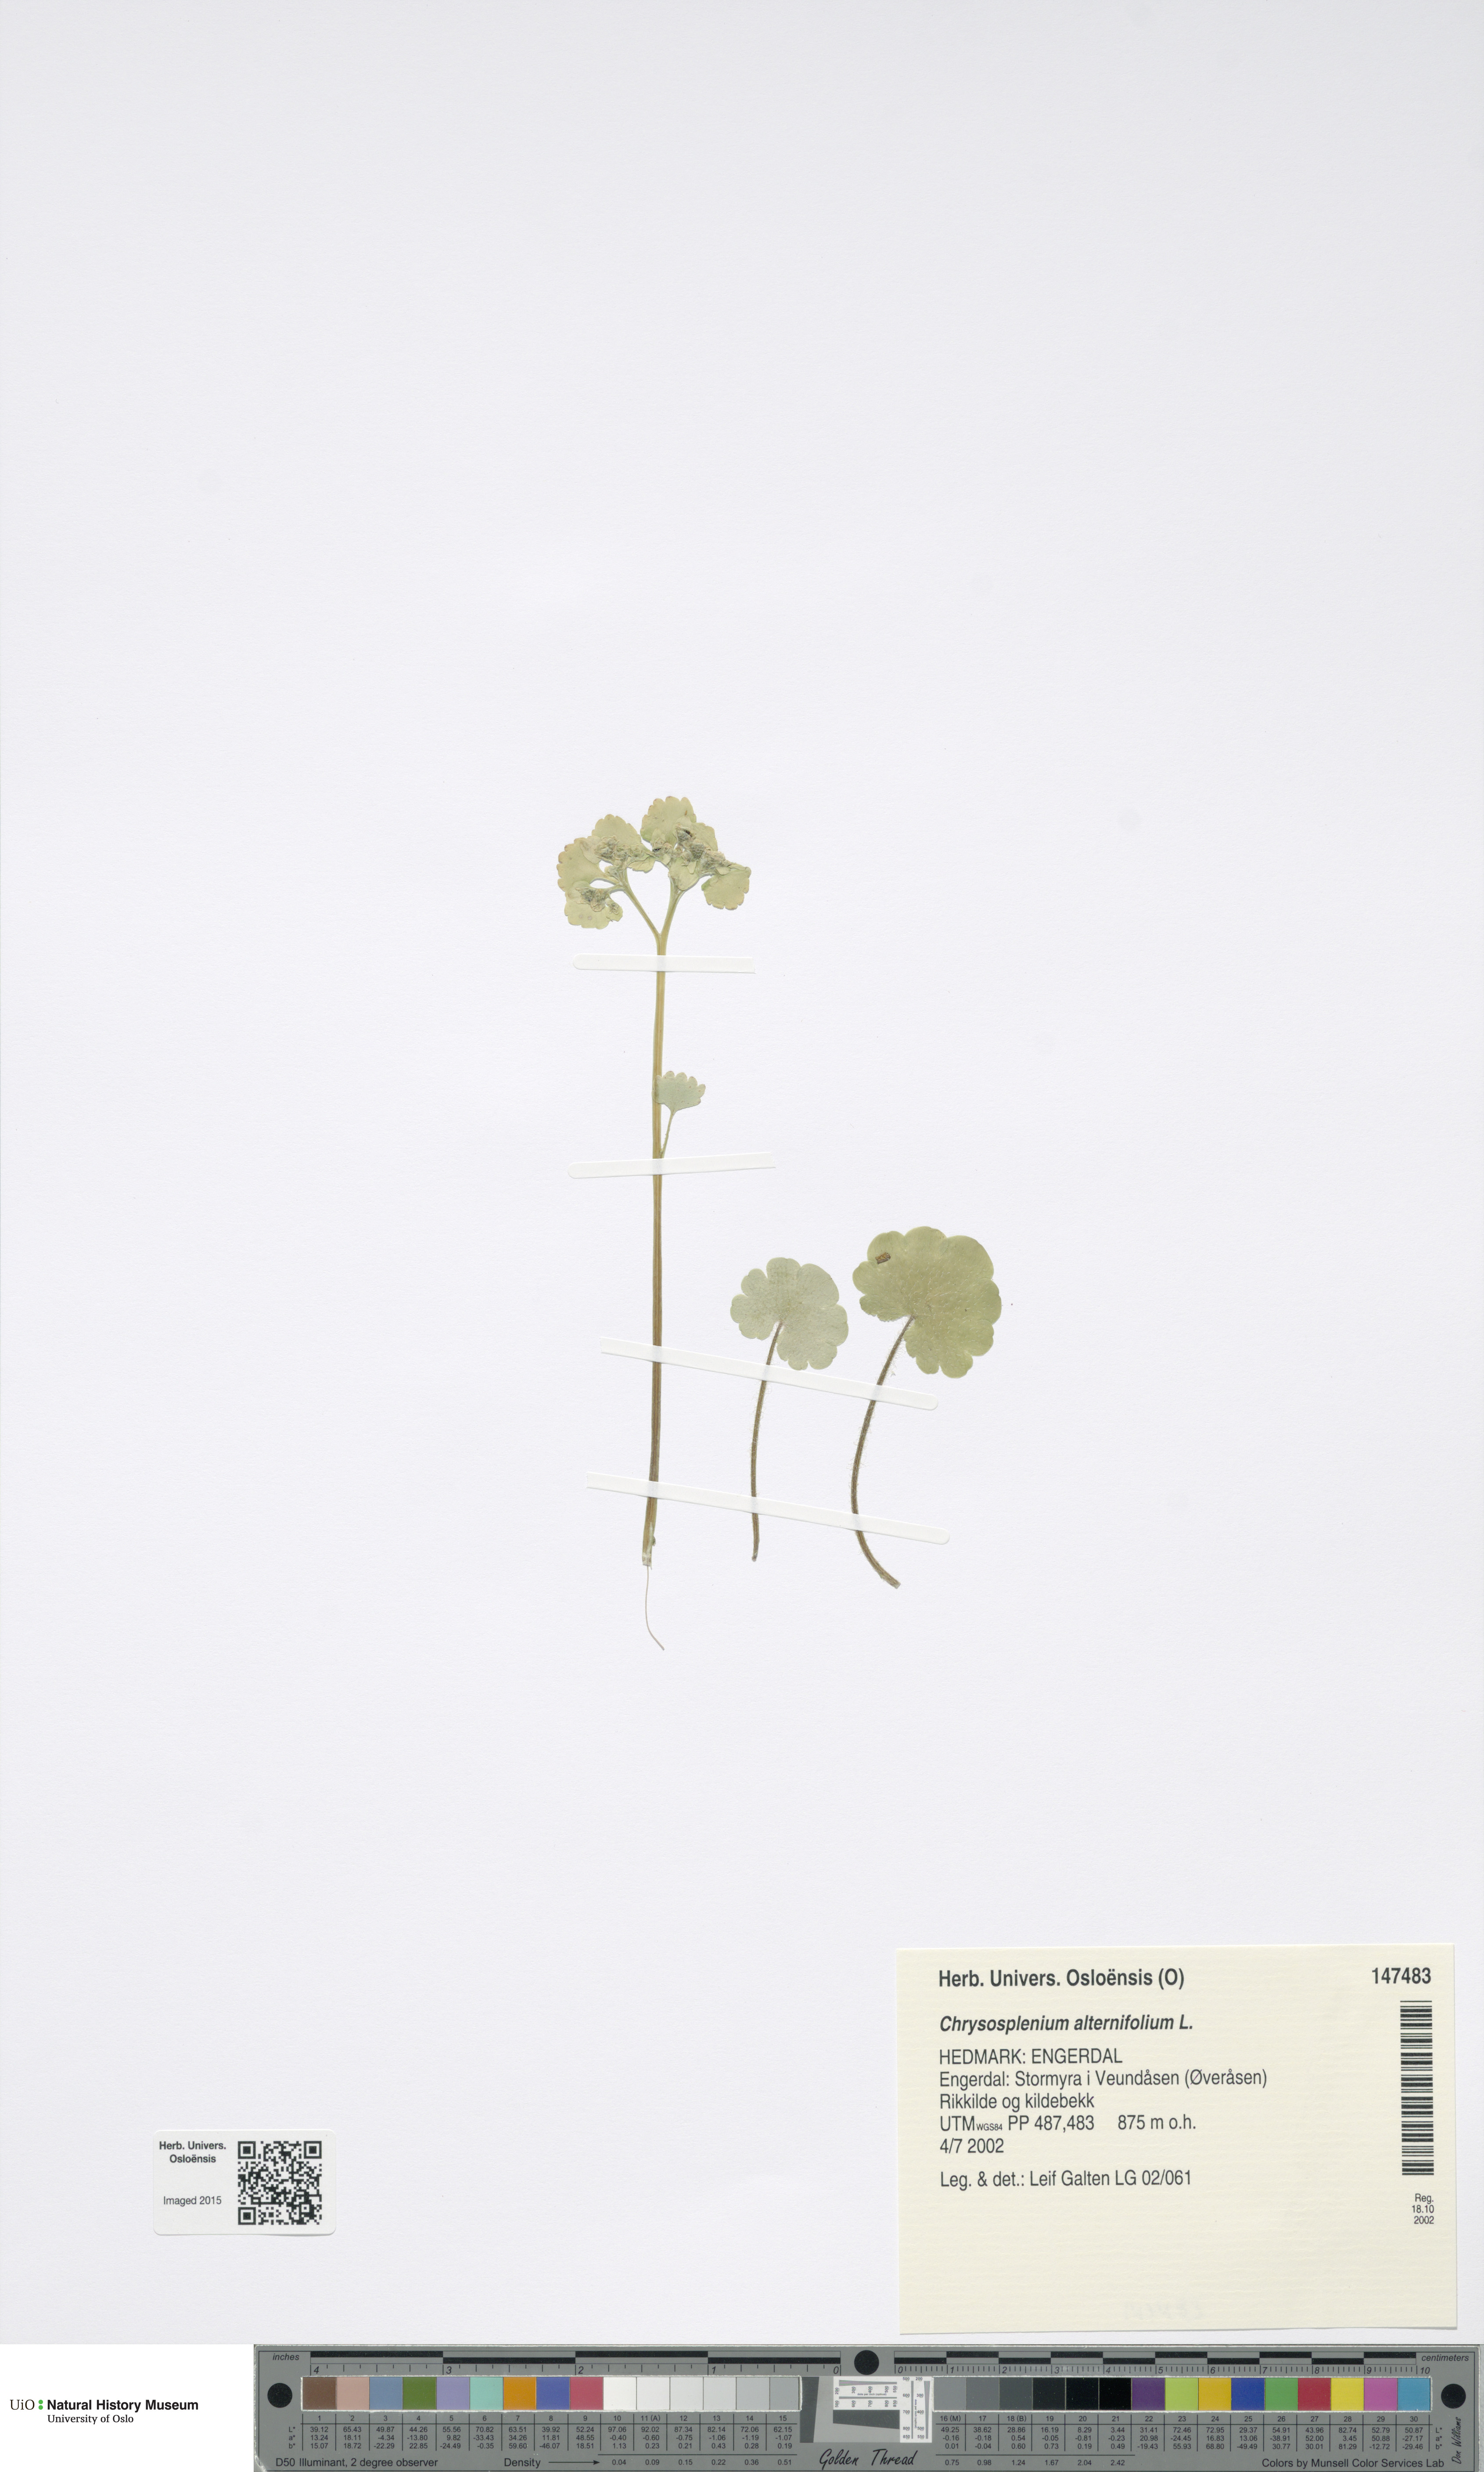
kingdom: Plantae
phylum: Tracheophyta
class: Magnoliopsida
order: Saxifragales
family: Saxifragaceae
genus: Chrysosplenium
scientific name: Chrysosplenium alternifolium
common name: Alternate-leaved golden-saxifrage
